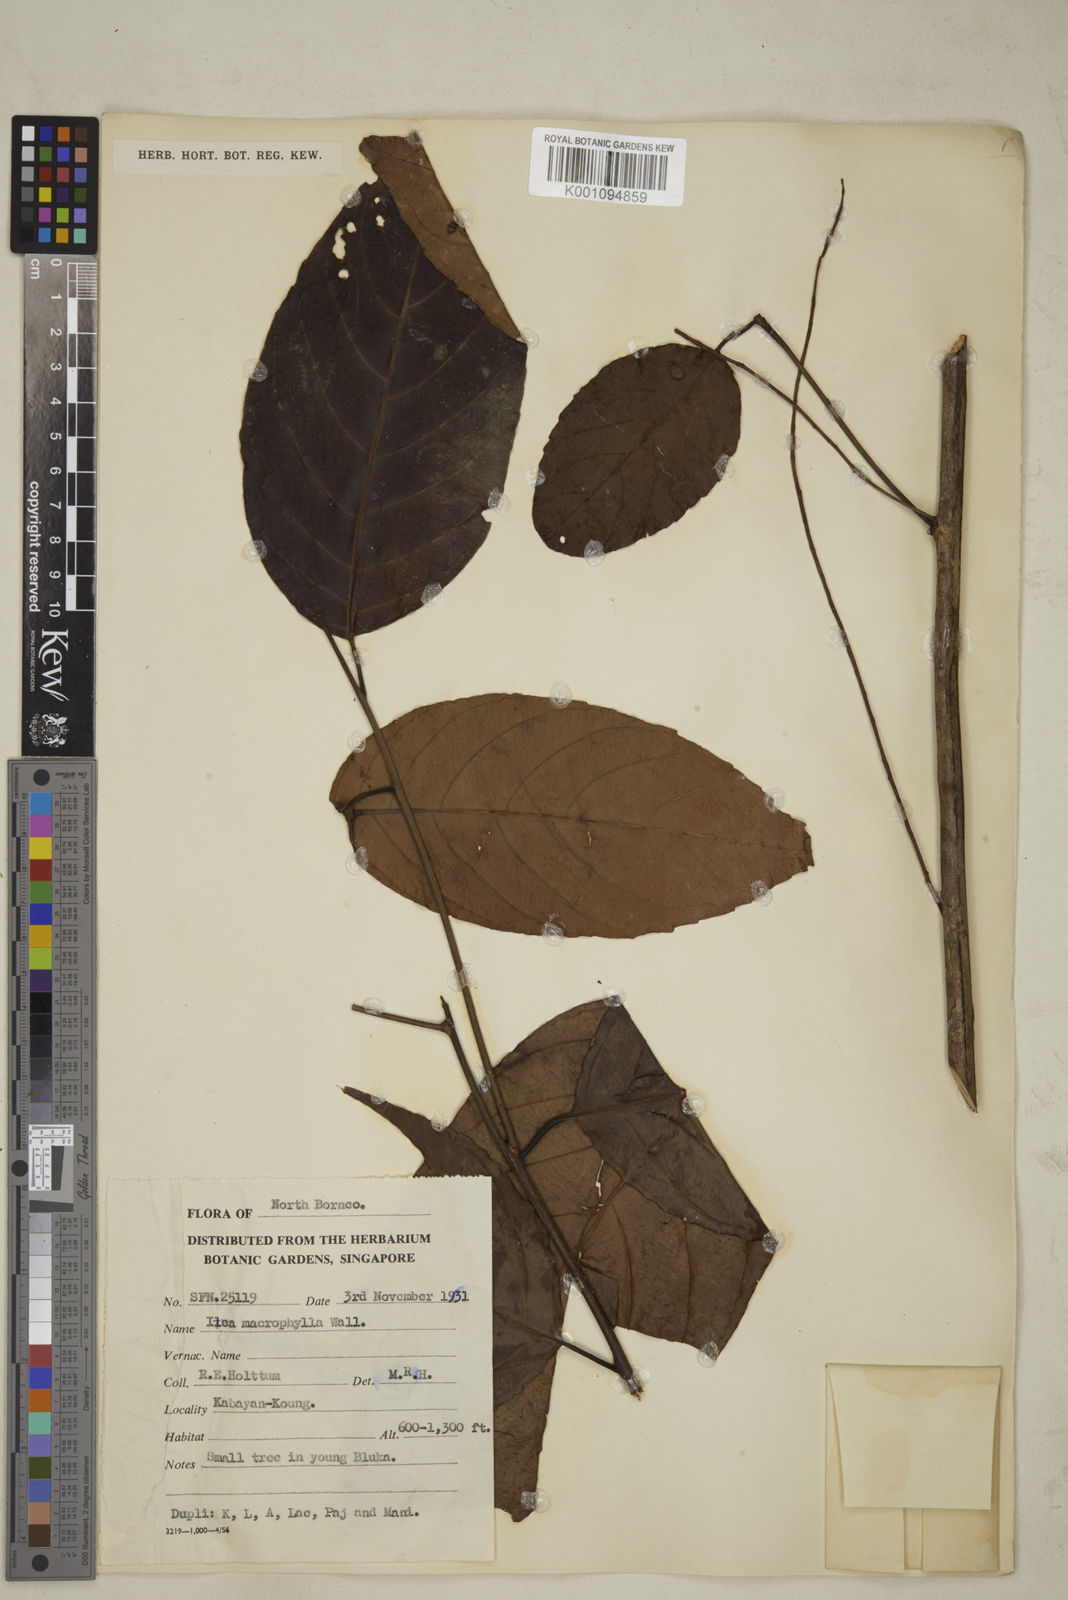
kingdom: Plantae
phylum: Tracheophyta
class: Magnoliopsida
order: Saxifragales
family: Iteaceae
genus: Itea
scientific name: Itea macrophylla
